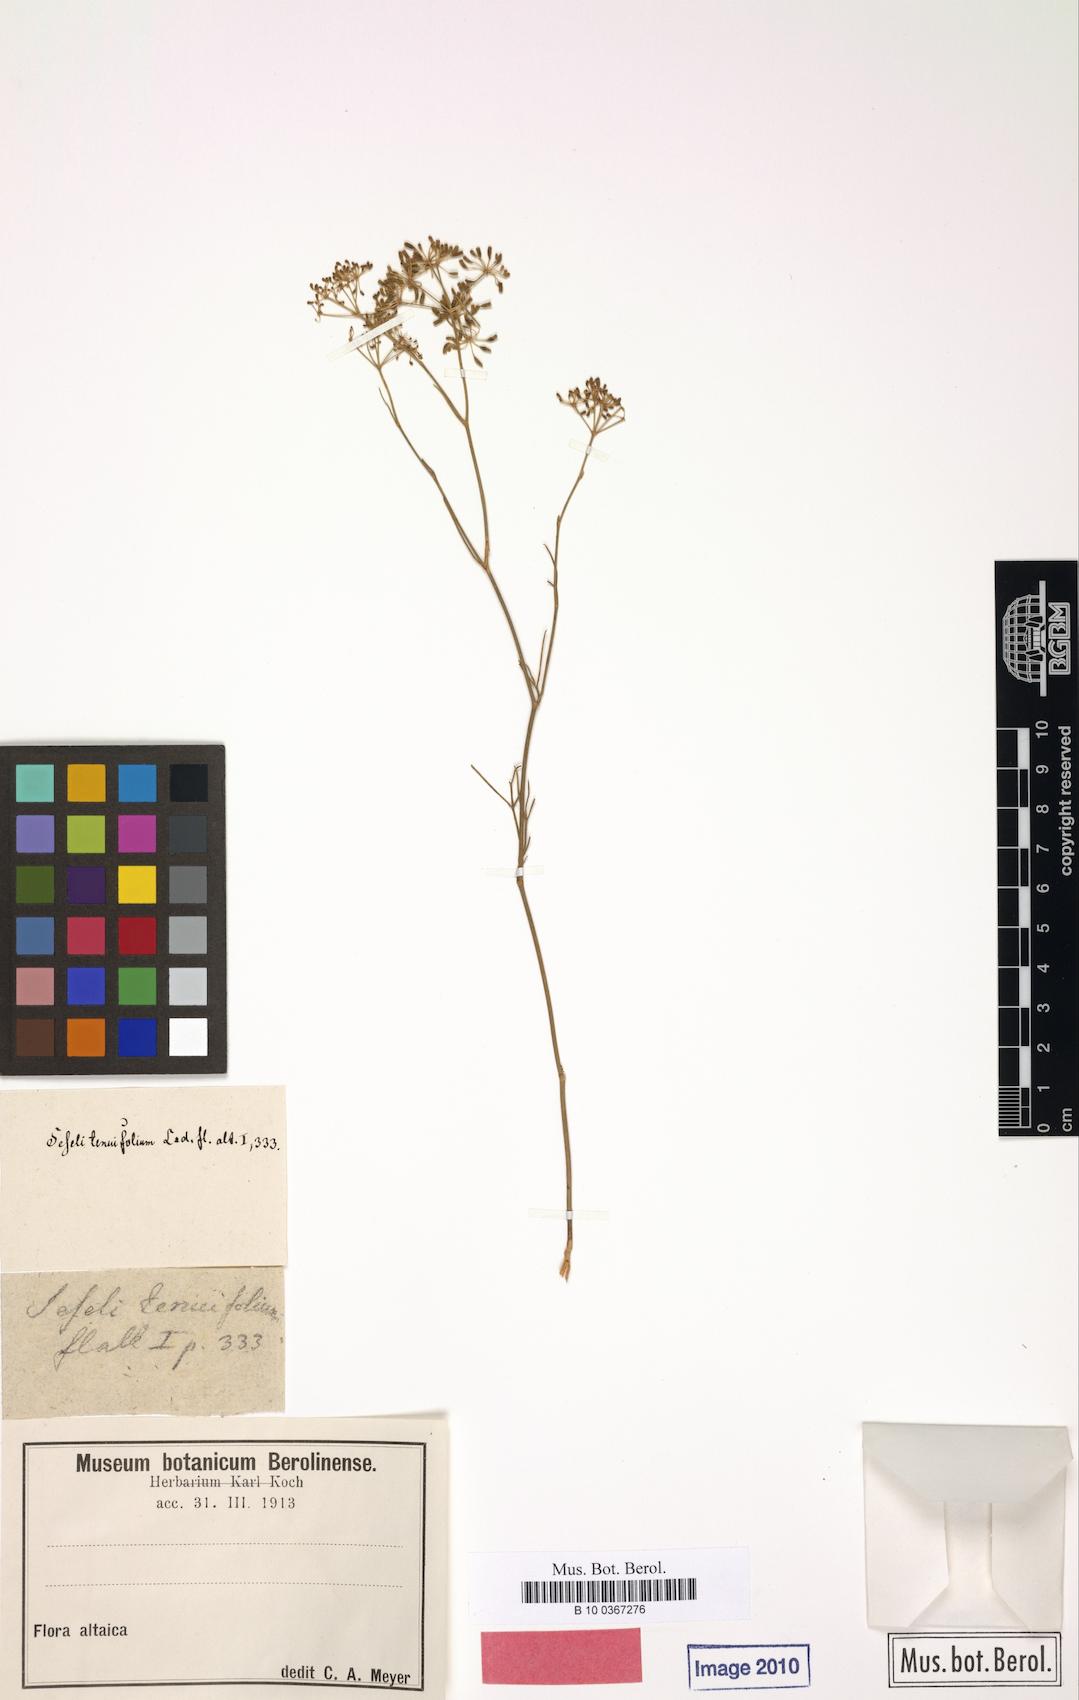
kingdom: Plantae
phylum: Tracheophyta
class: Magnoliopsida
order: Apiales
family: Apiaceae
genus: Seseli
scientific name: Seseli glabratum
